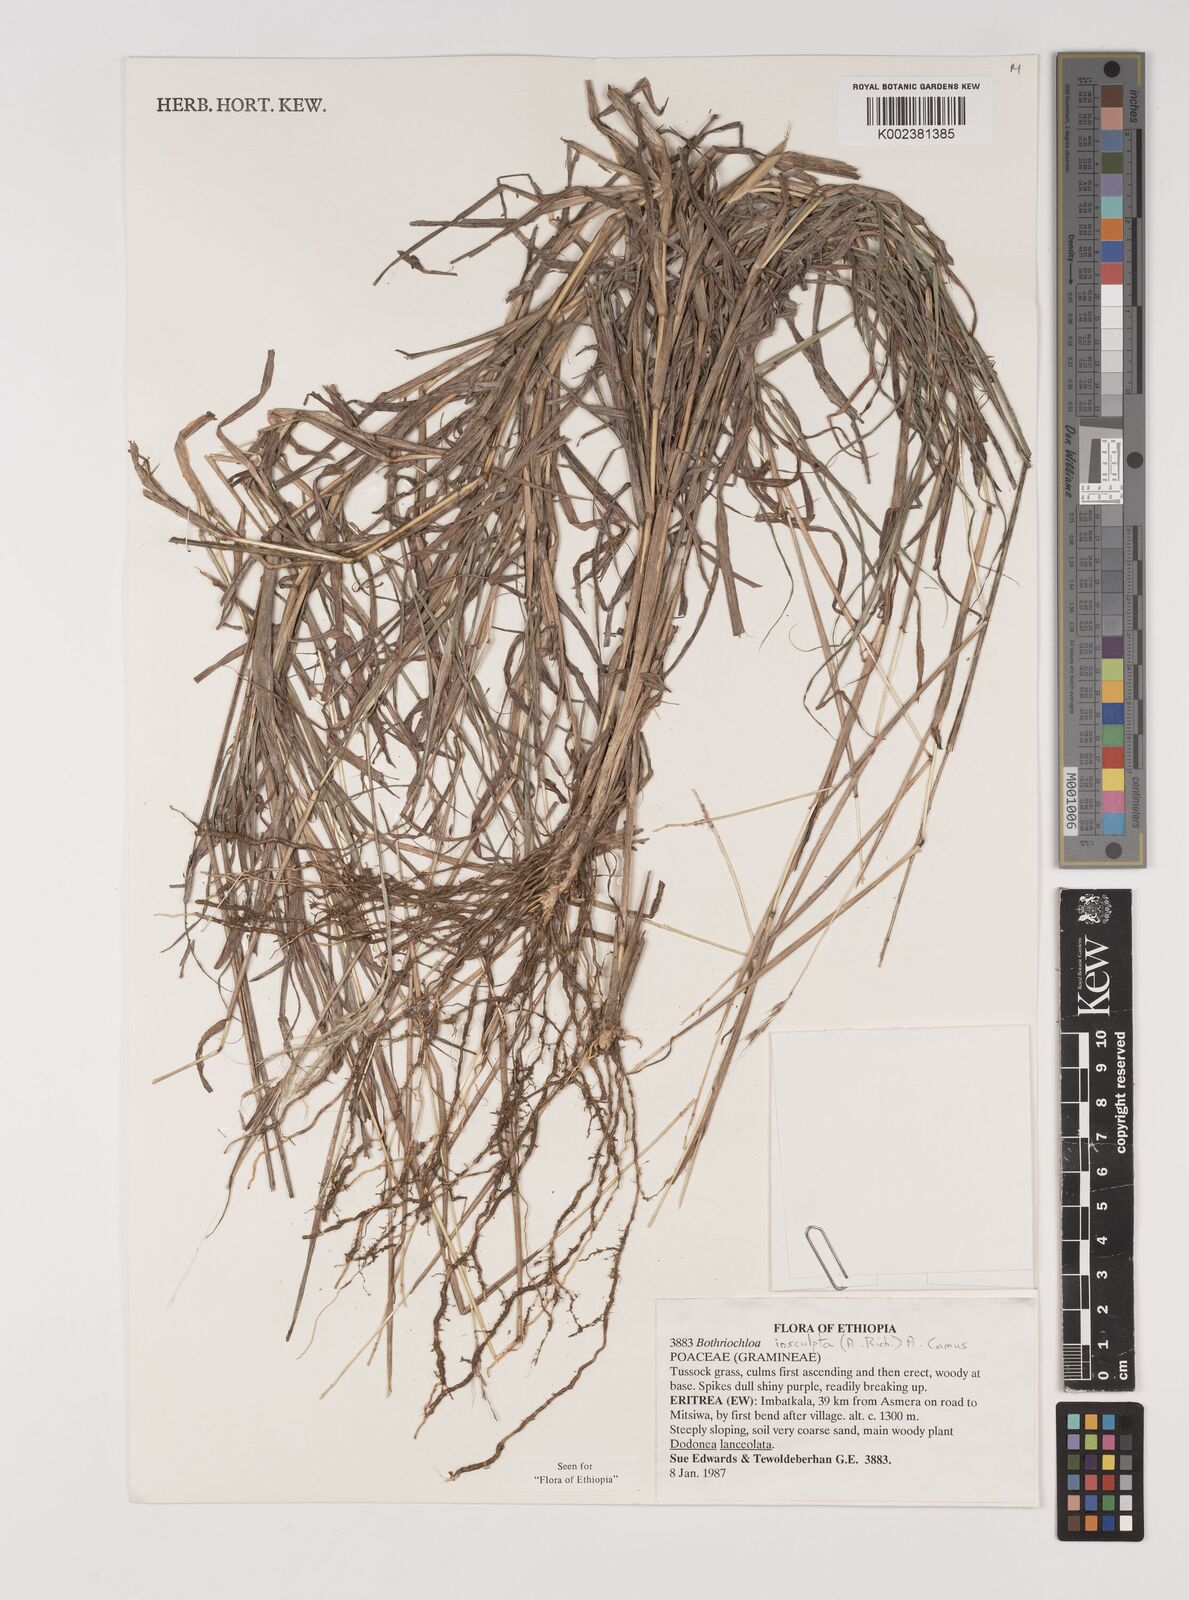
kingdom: Plantae
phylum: Tracheophyta
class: Liliopsida
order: Poales
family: Poaceae
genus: Bothriochloa
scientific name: Bothriochloa insculpta
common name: Creeping-bluegrass
